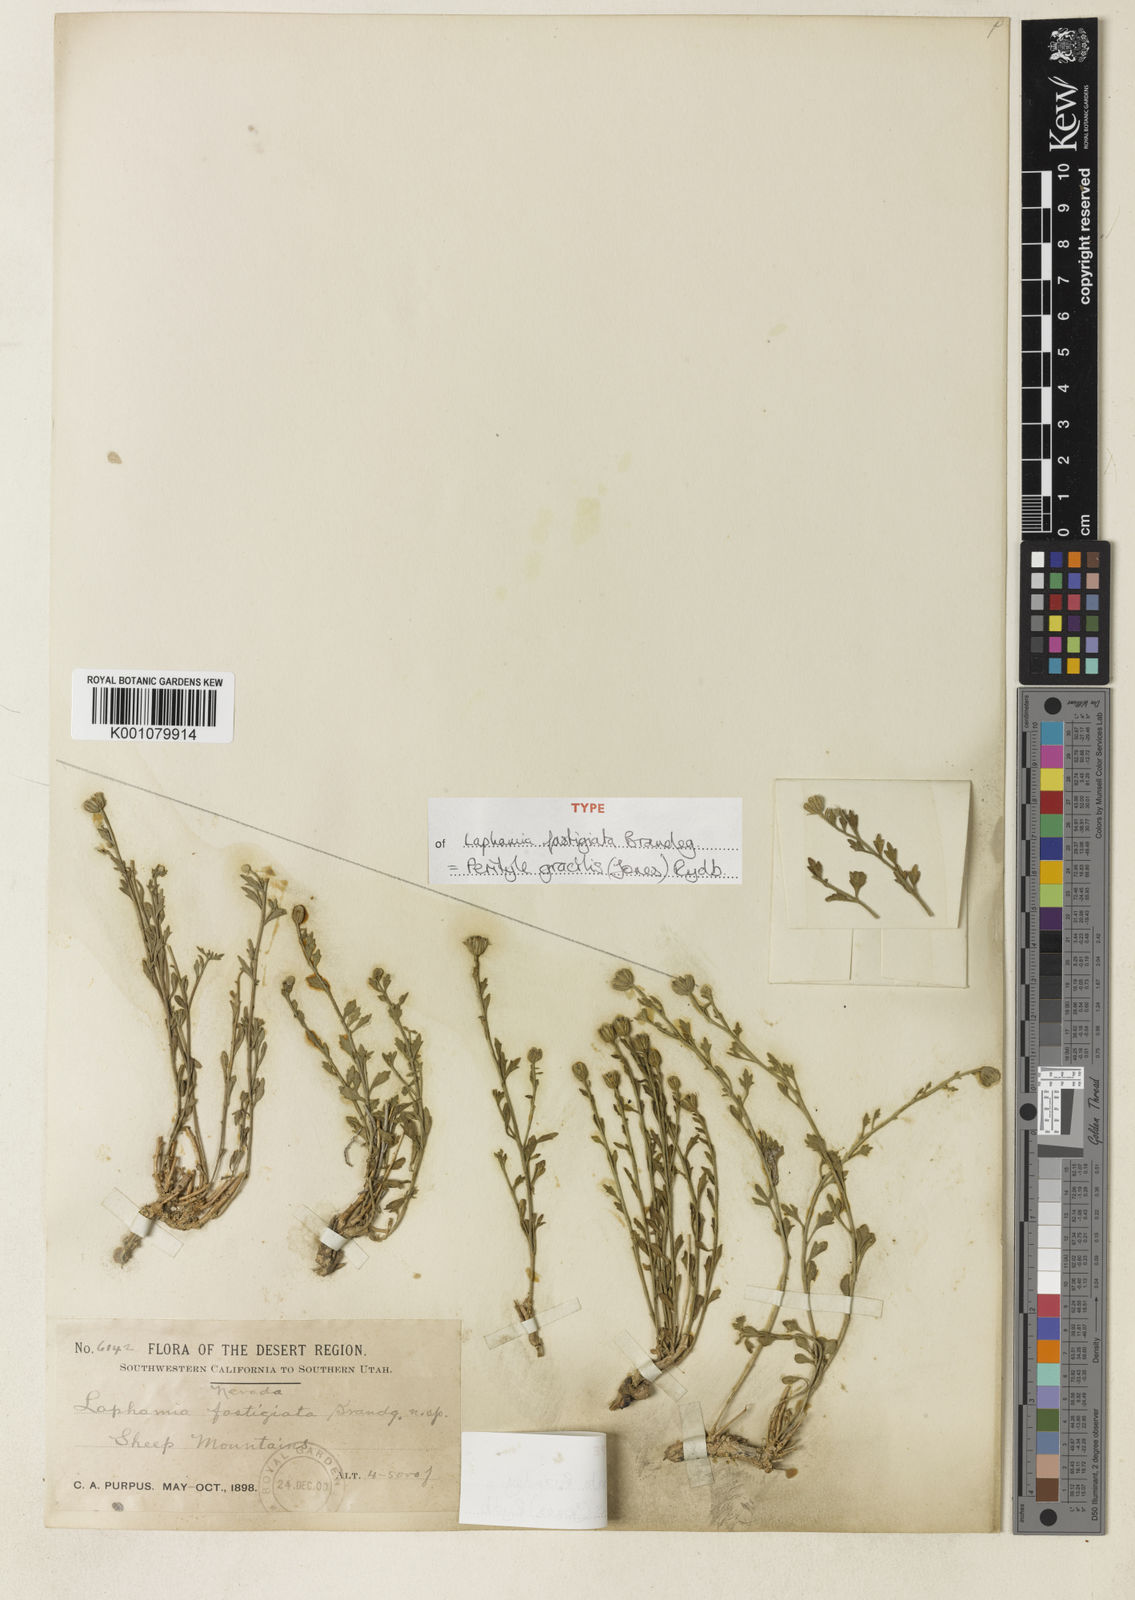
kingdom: Plantae
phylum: Tracheophyta
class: Magnoliopsida
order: Asterales
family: Asteraceae
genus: Laphamia
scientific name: Laphamia gracilis
